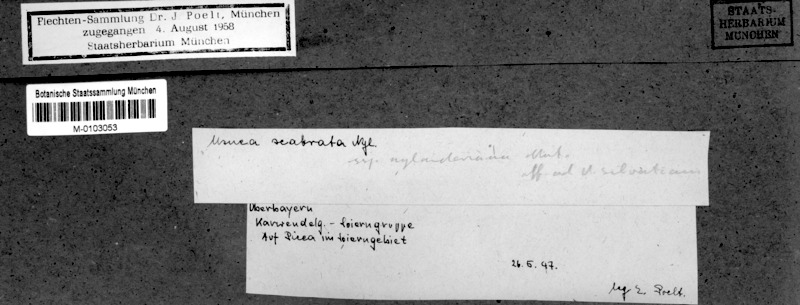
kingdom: Fungi
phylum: Ascomycota
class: Lecanoromycetes
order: Lecanorales
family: Parmeliaceae
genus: Usnea
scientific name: Usnea scabrata
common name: Straw beard lichen
